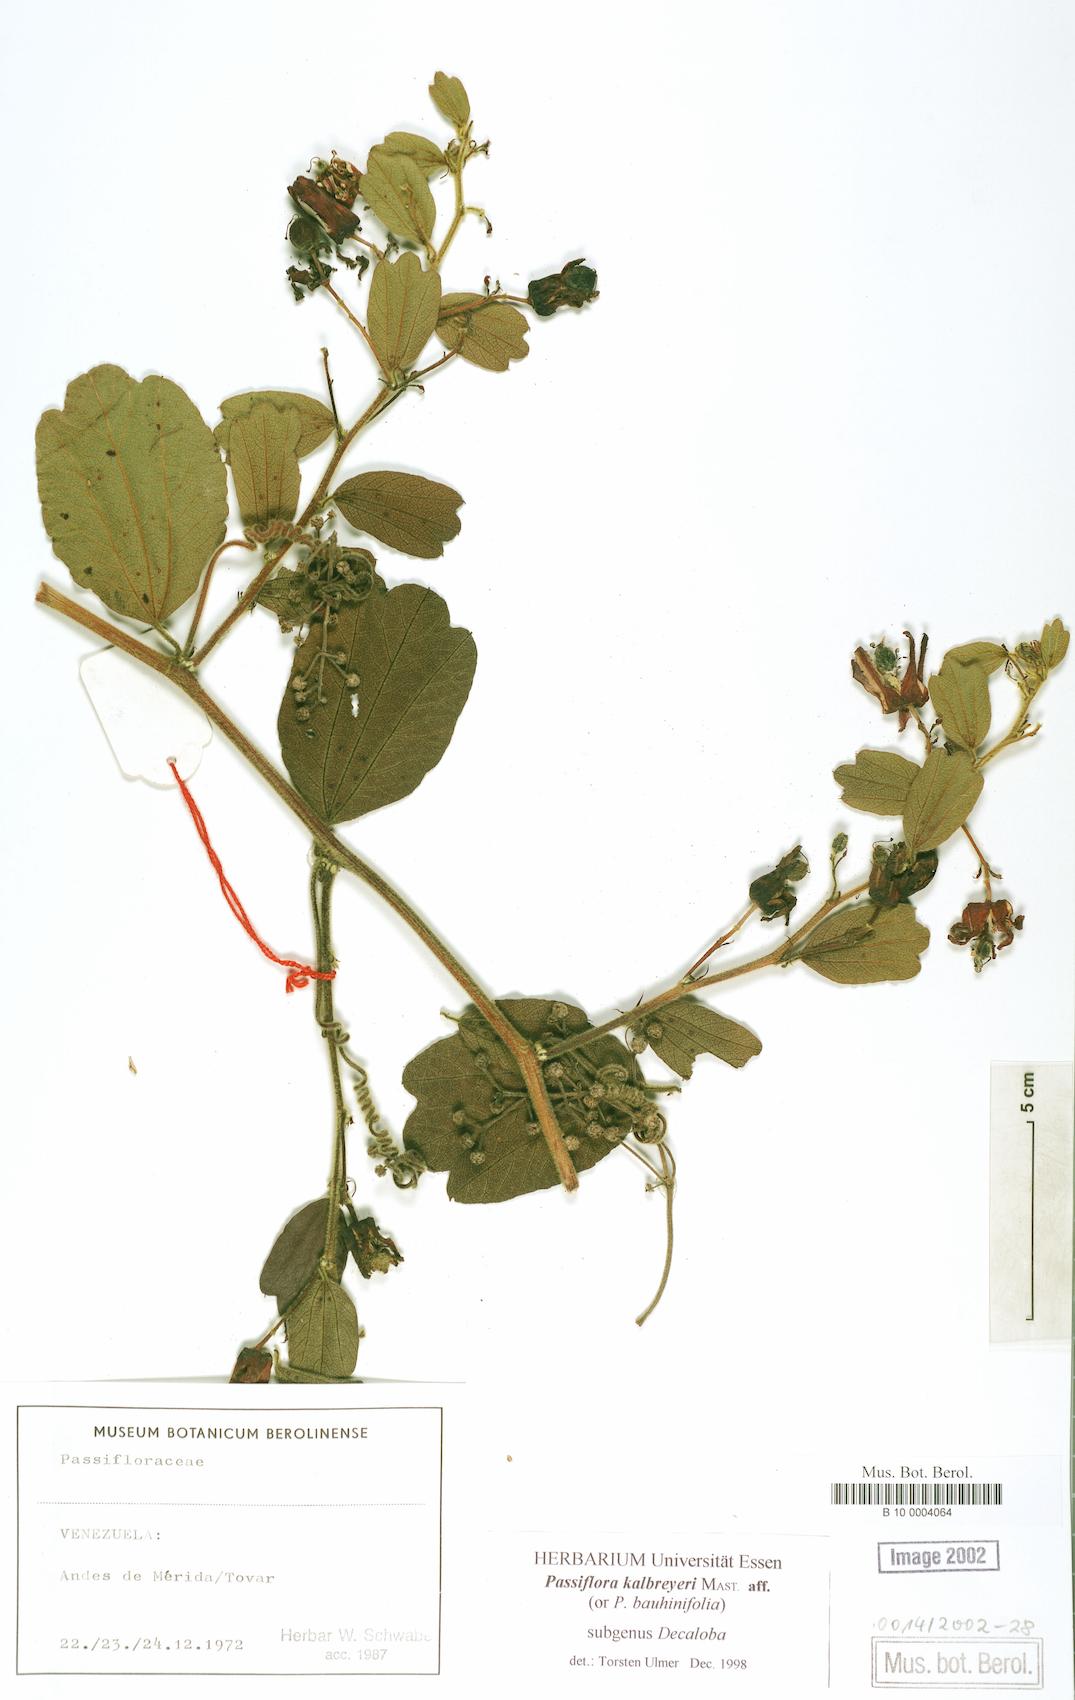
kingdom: Plantae
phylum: Tracheophyta
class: Magnoliopsida
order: Malpighiales
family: Passifloraceae
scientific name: Passifloraceae
